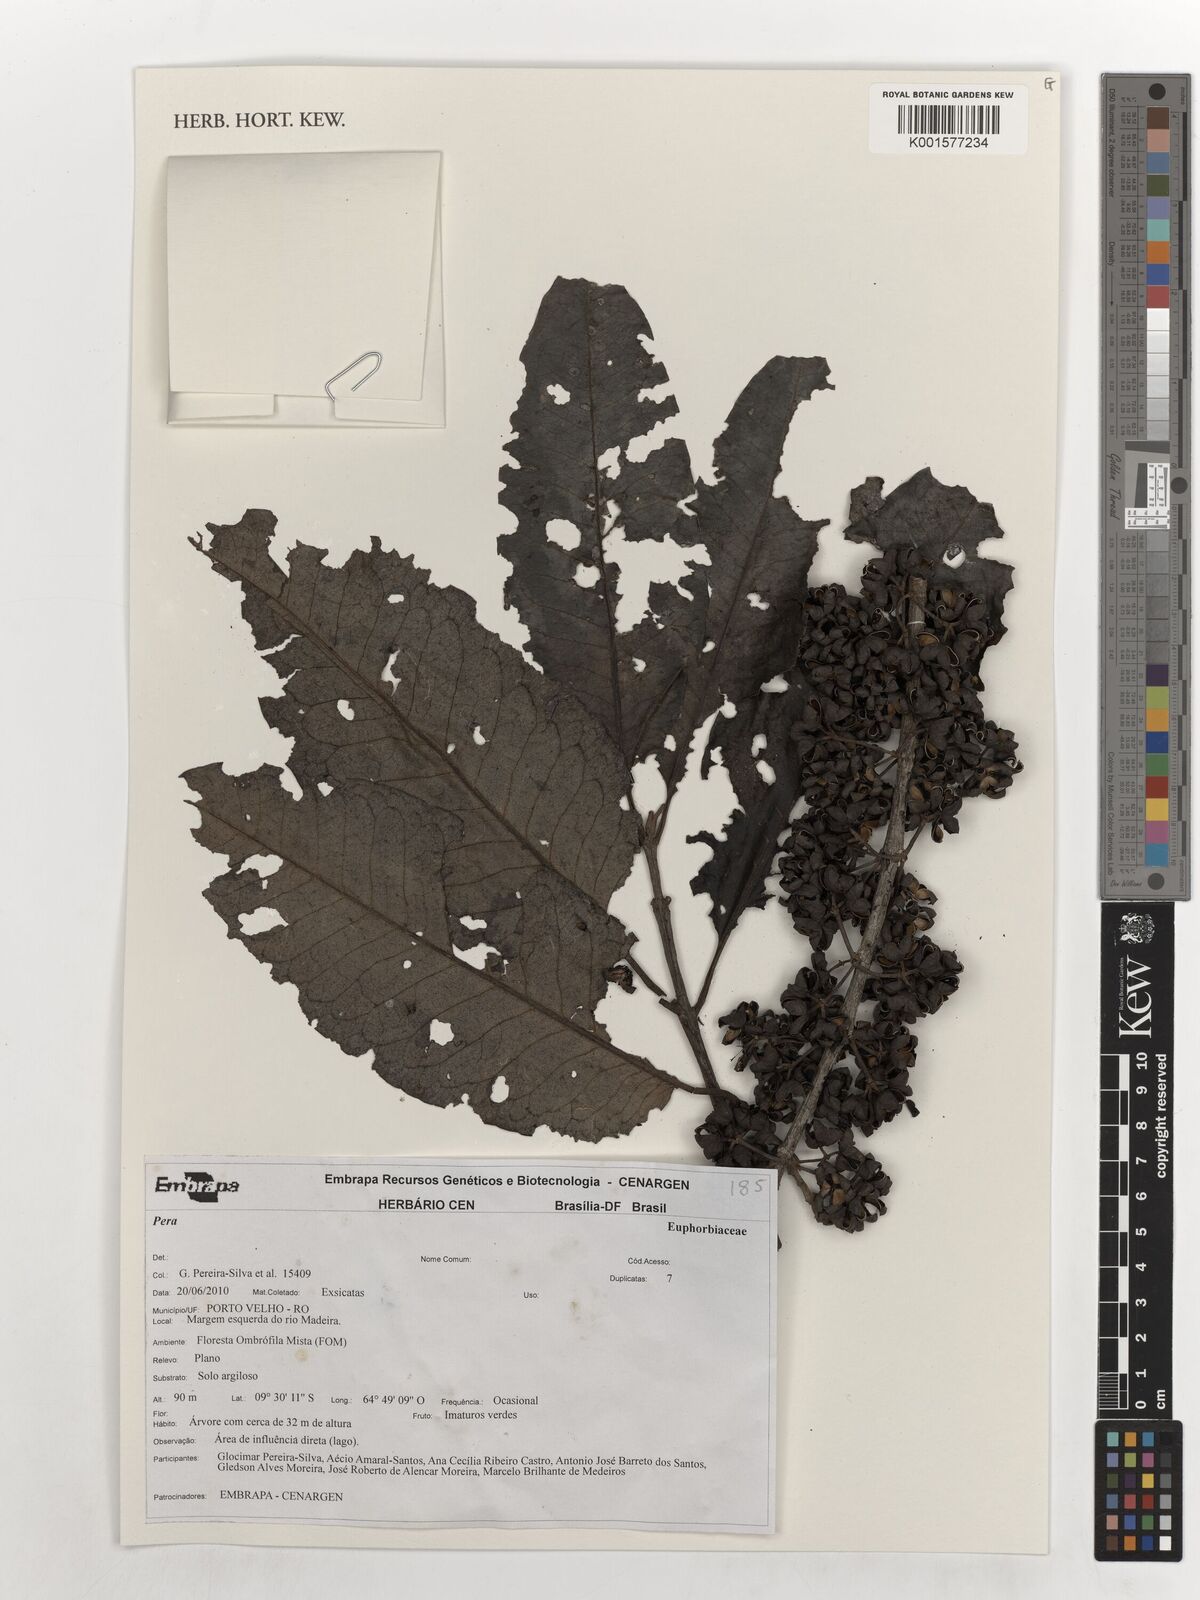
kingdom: Plantae
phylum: Tracheophyta
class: Magnoliopsida
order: Malpighiales
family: Peraceae
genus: Pera
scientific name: Pera
